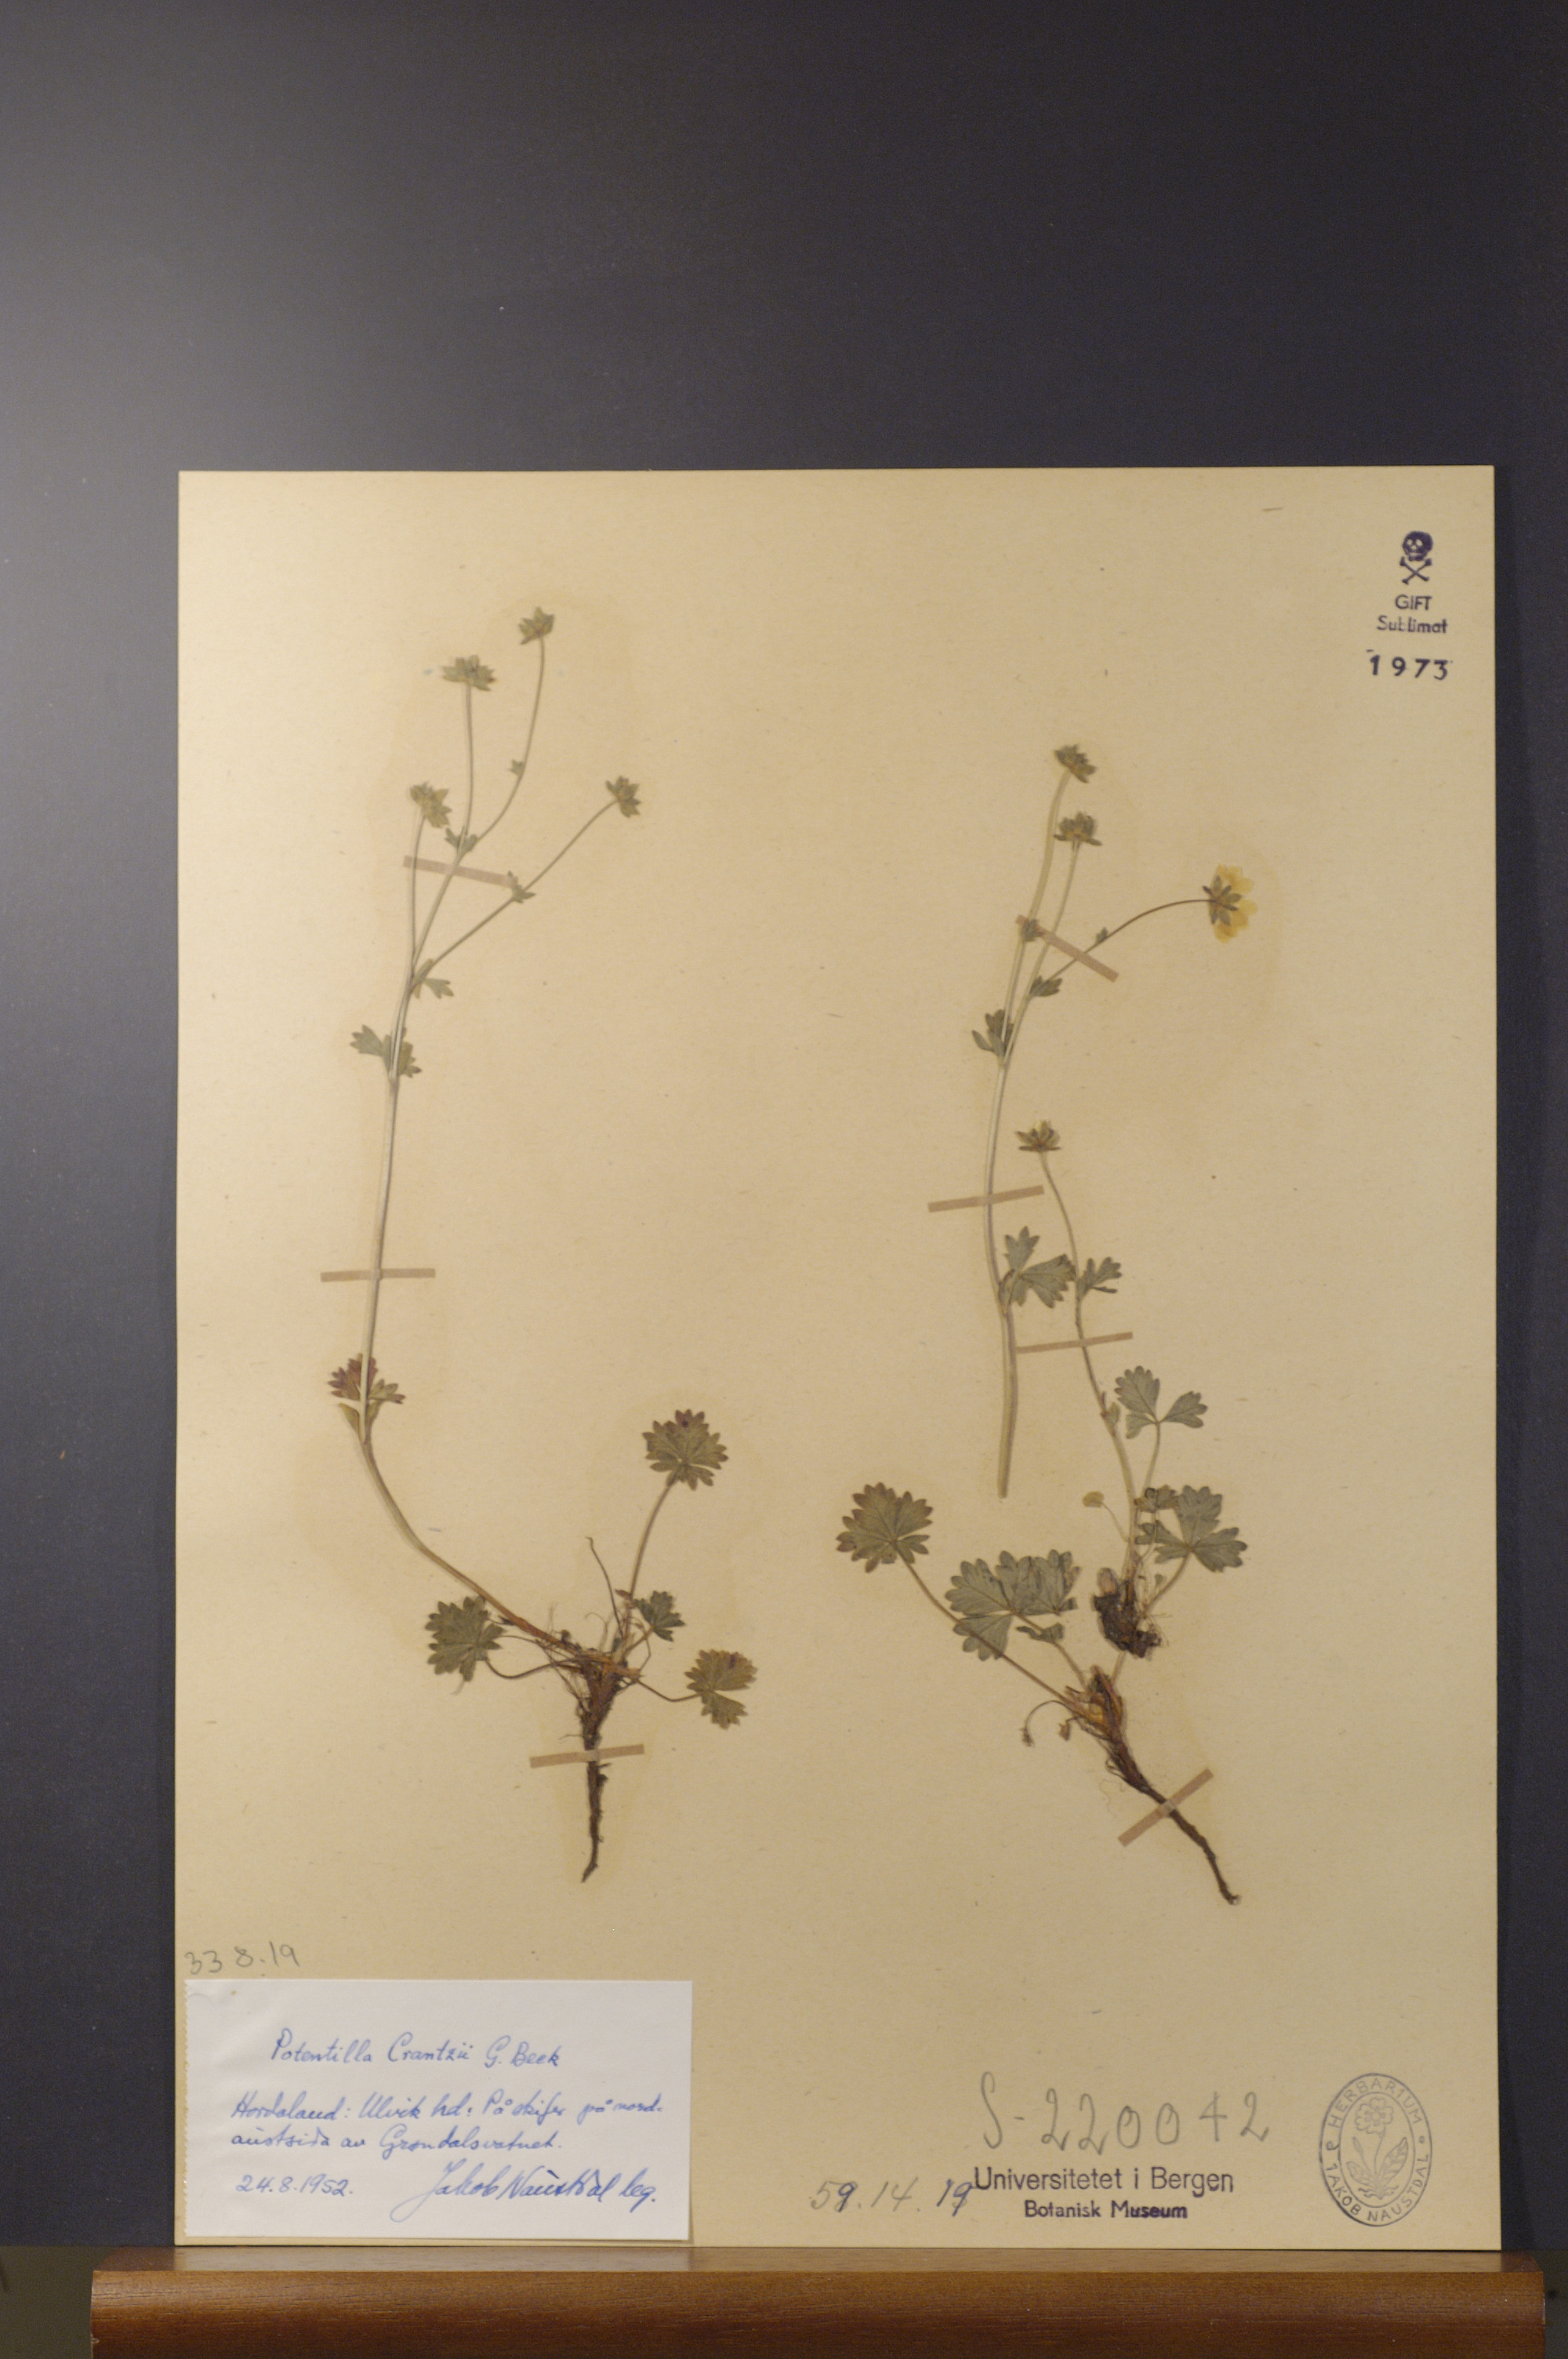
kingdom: Plantae
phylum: Tracheophyta
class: Magnoliopsida
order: Rosales
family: Rosaceae
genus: Potentilla
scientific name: Potentilla crantzii
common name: Alpine cinquefoil
